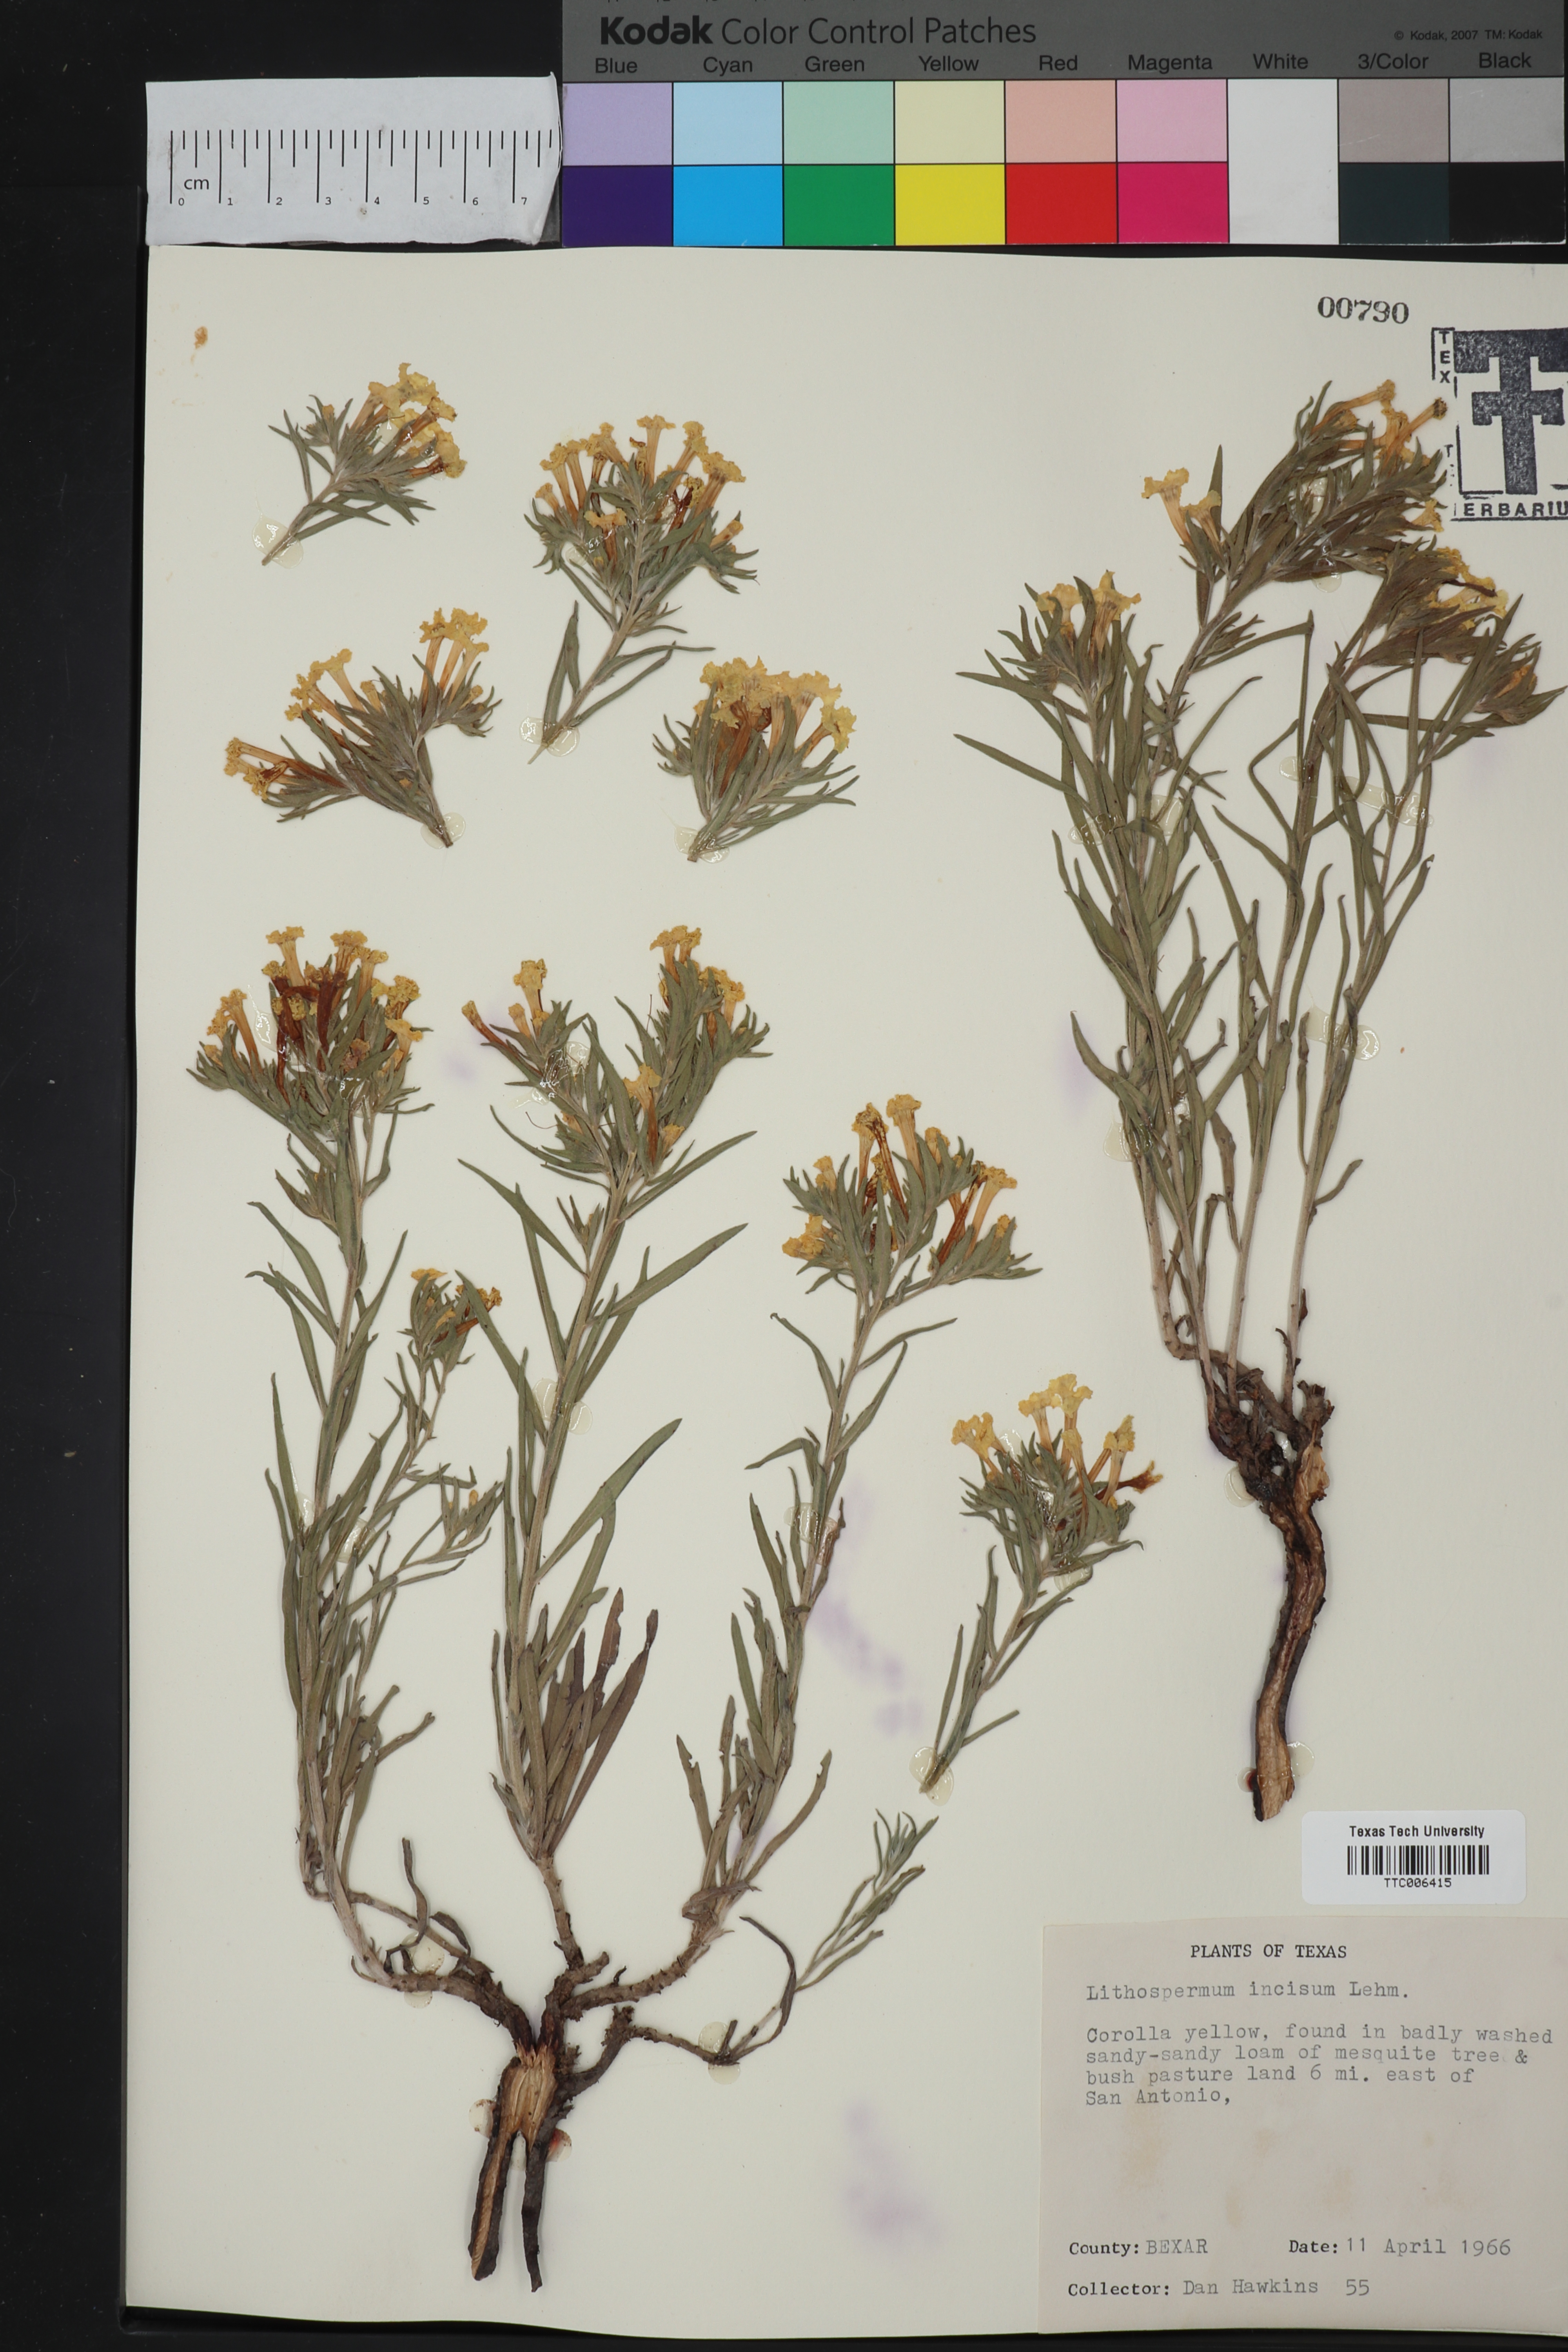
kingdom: Plantae
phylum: Tracheophyta
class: Magnoliopsida
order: Boraginales
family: Boraginaceae
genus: Lithospermum
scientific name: Lithospermum incisum
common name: Fringed gromwell
